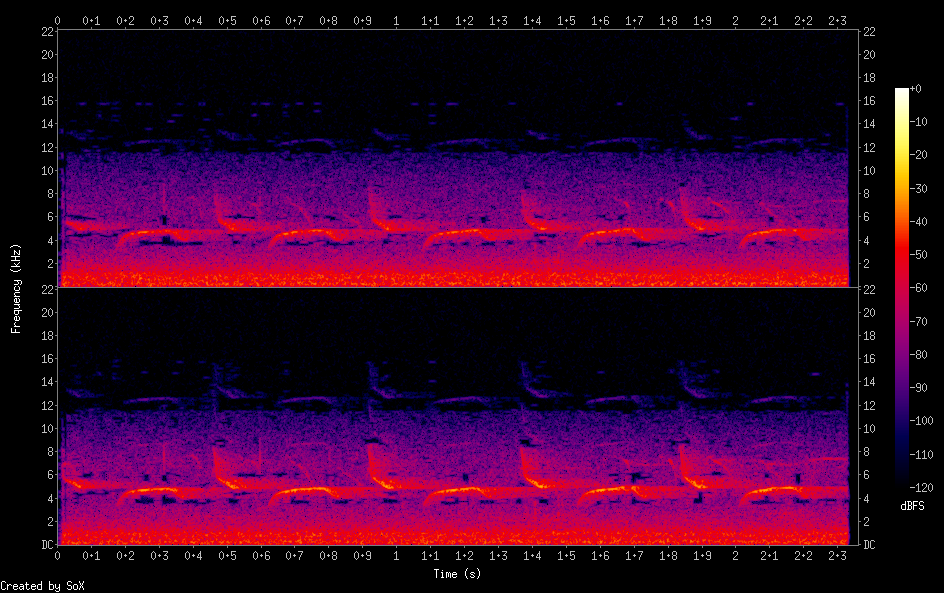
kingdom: Animalia
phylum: Chordata
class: Aves
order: Passeriformes
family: Paridae
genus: Periparus
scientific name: Periparus ater
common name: Coal tit
